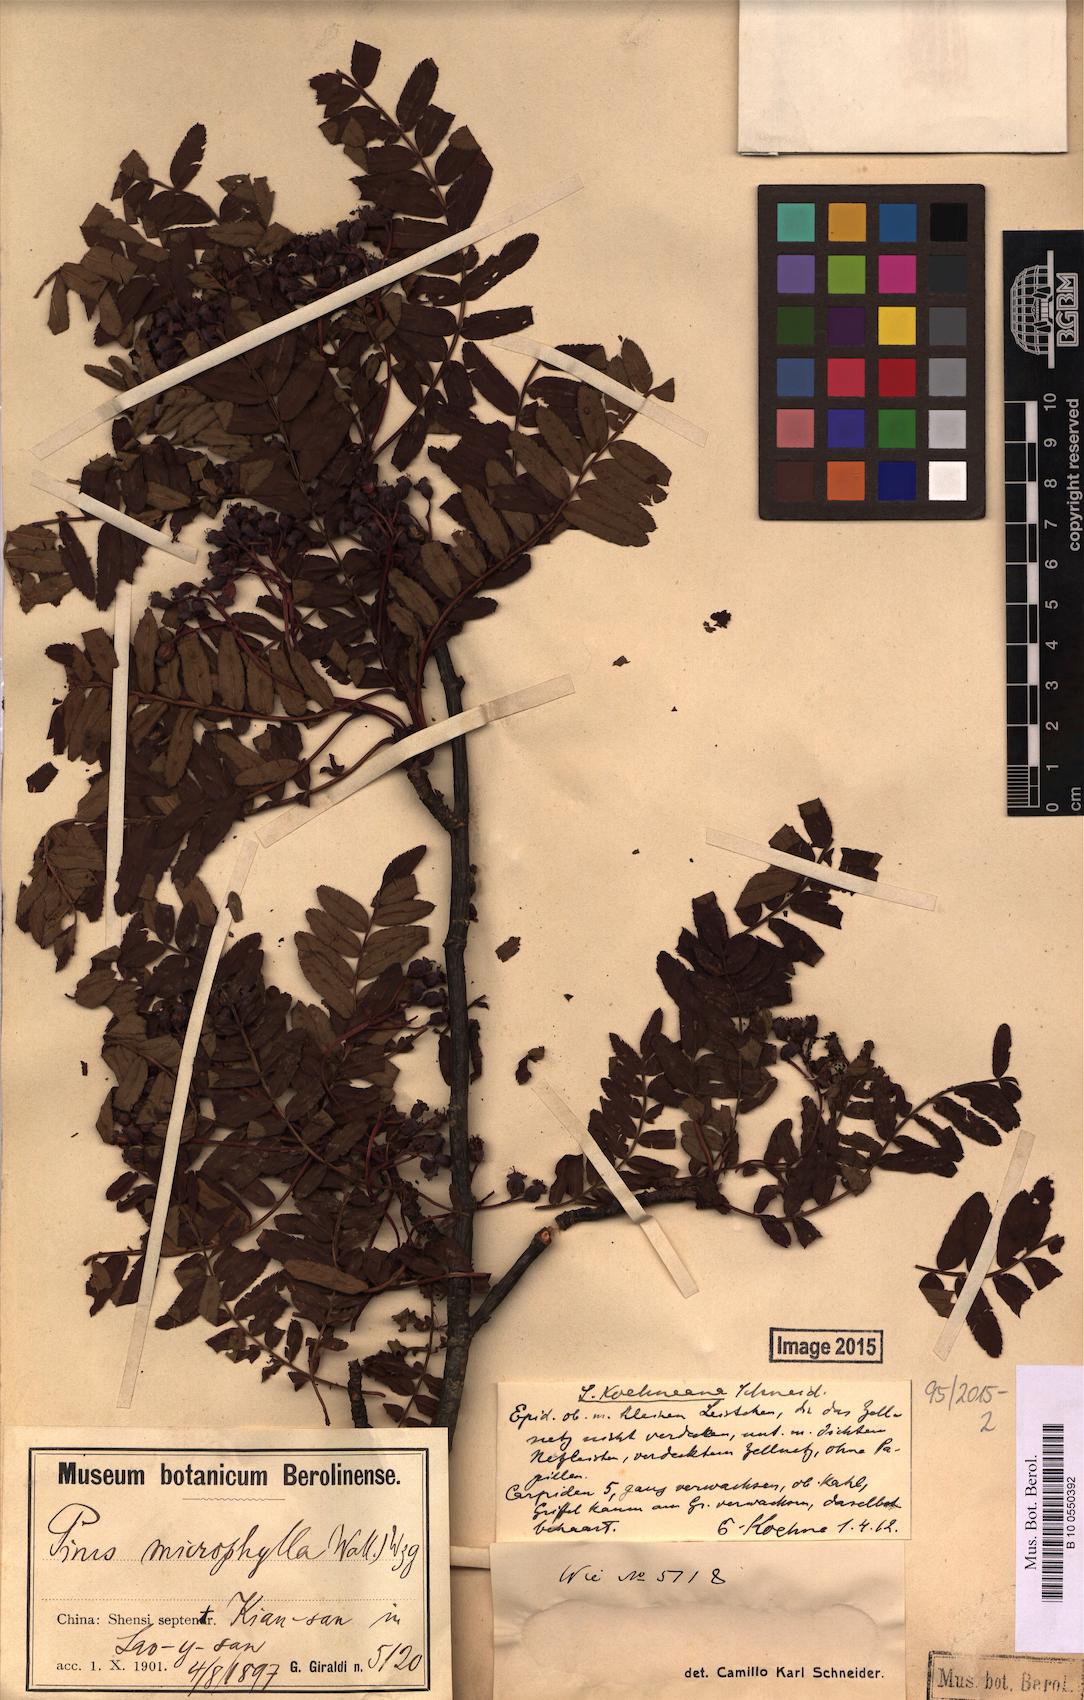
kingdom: Plantae
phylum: Tracheophyta
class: Magnoliopsida
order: Rosales
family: Rosaceae
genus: Sorbus
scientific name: Sorbus koehneana
